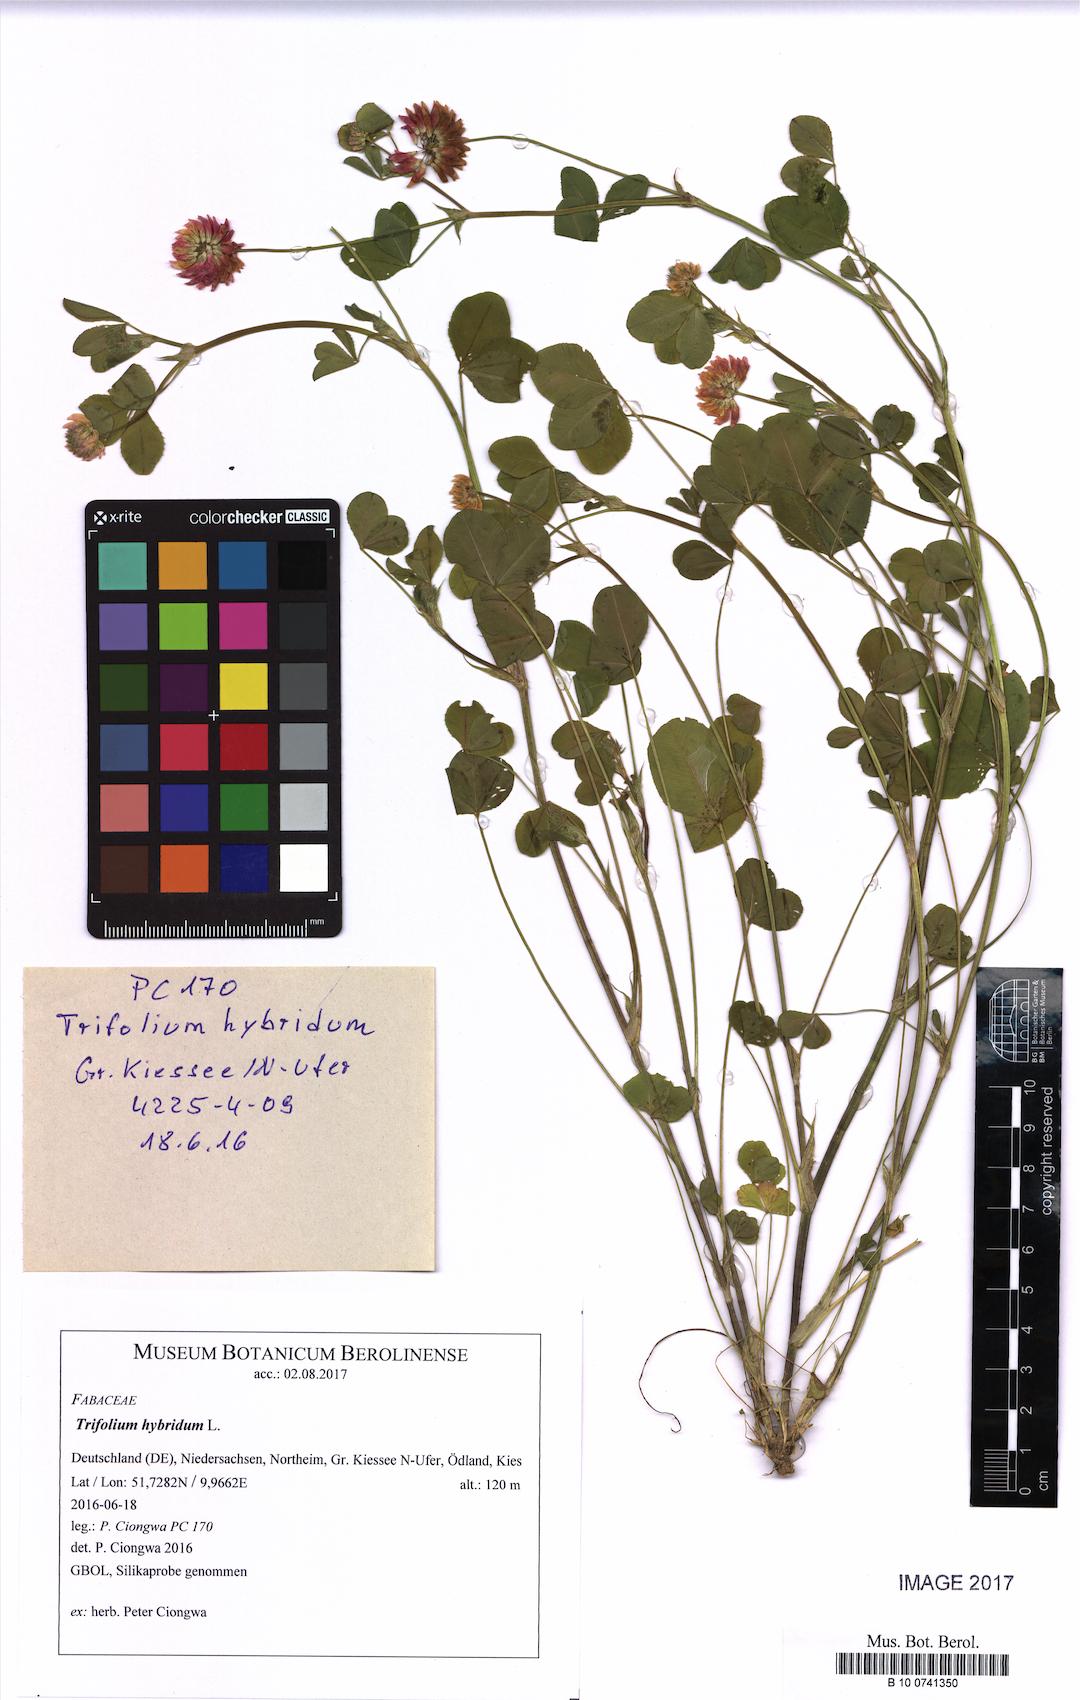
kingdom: Plantae
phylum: Tracheophyta
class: Magnoliopsida
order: Fabales
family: Fabaceae
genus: Trifolium
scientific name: Trifolium hybridum
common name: Alsike clover
